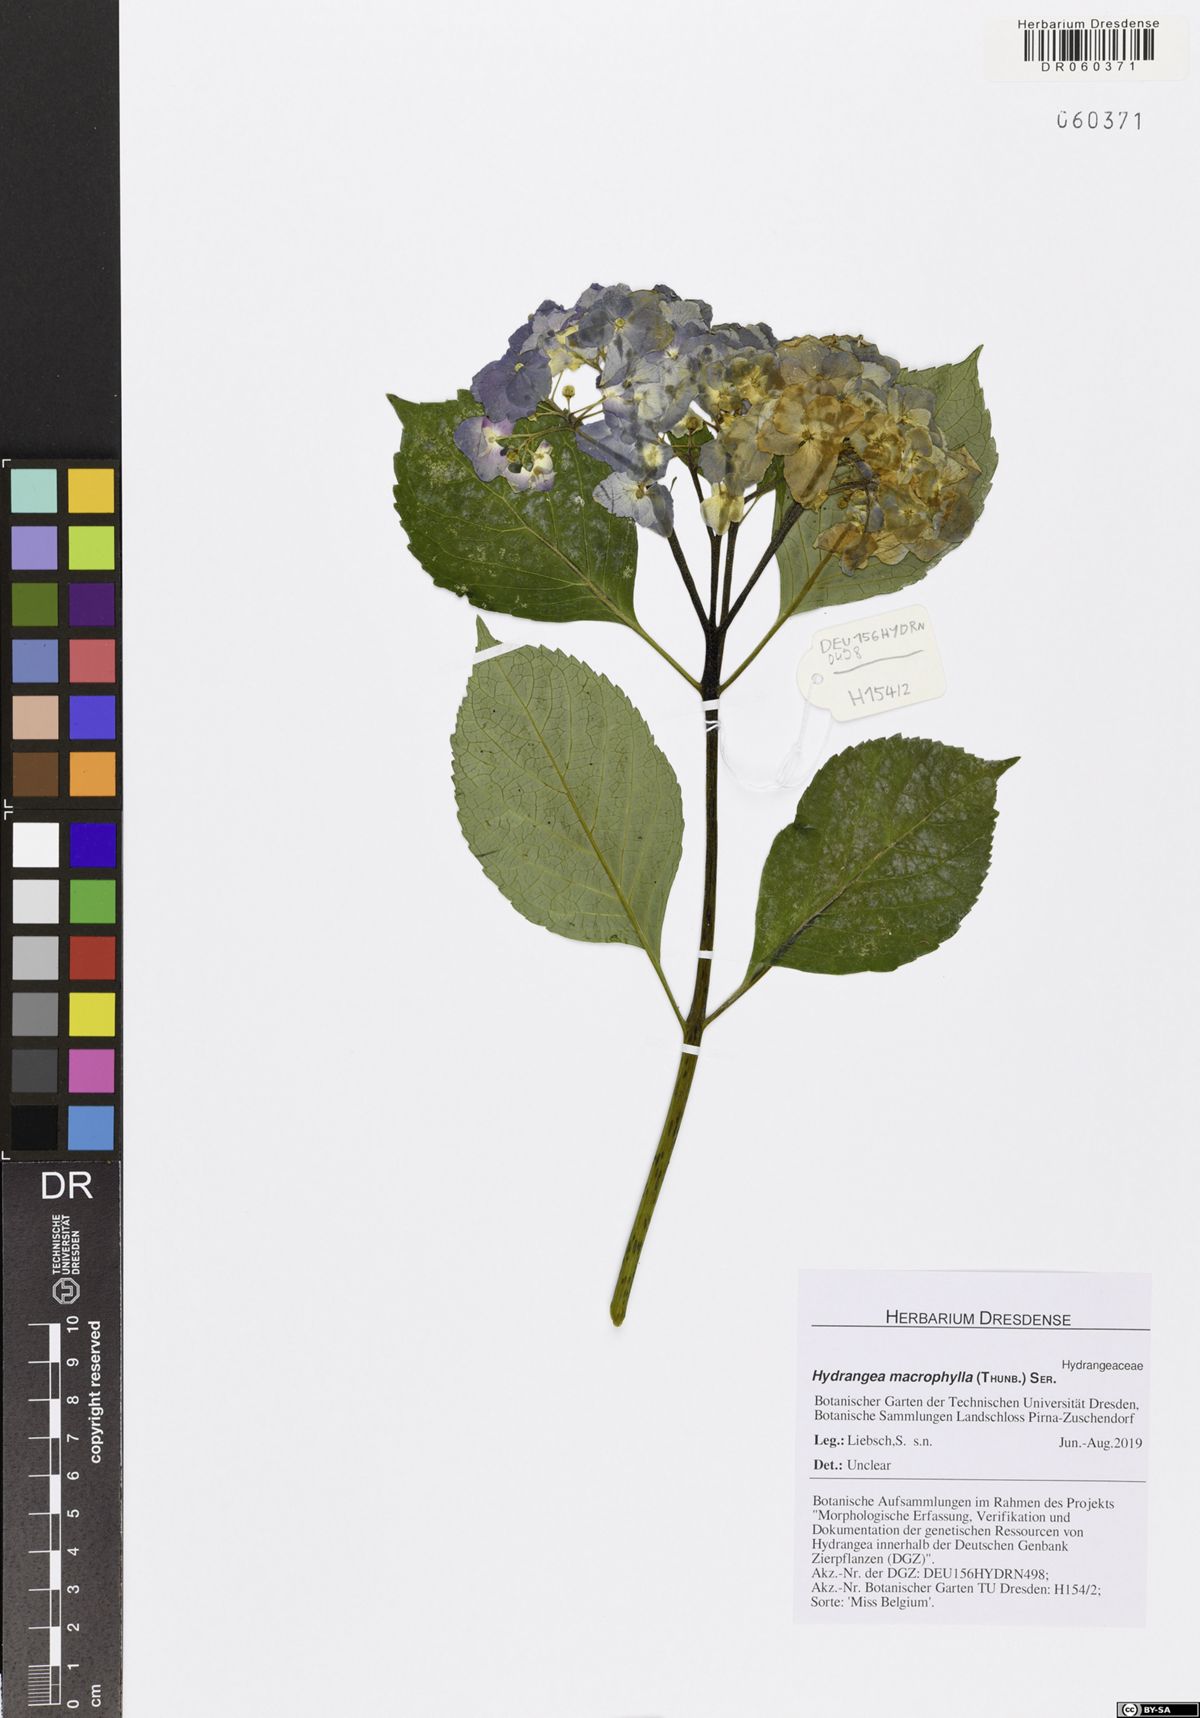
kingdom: Plantae
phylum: Tracheophyta
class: Magnoliopsida
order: Cornales
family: Hydrangeaceae
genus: Hydrangea
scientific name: Hydrangea macrophylla
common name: Hydrangea
